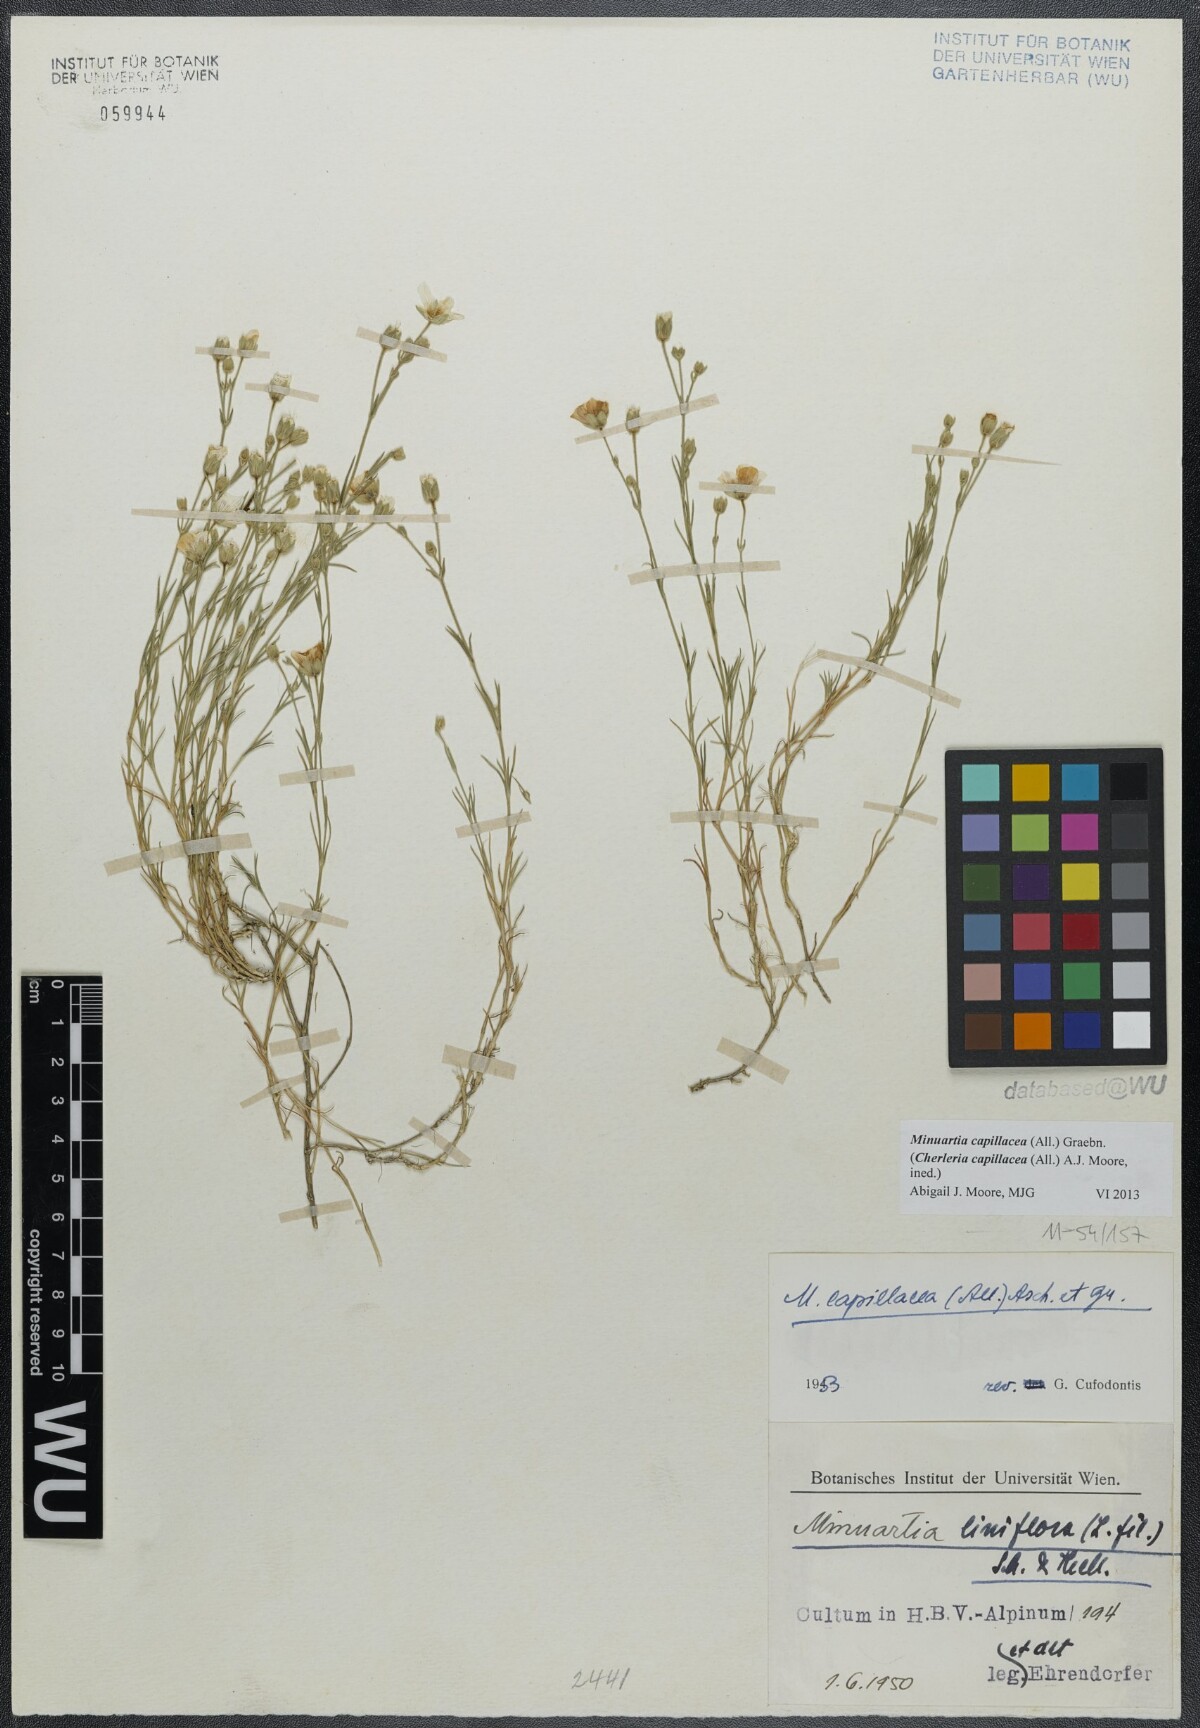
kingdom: Plantae
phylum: Tracheophyta
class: Magnoliopsida
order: Caryophyllales
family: Caryophyllaceae
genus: Cherleria
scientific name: Cherleria capillacea
